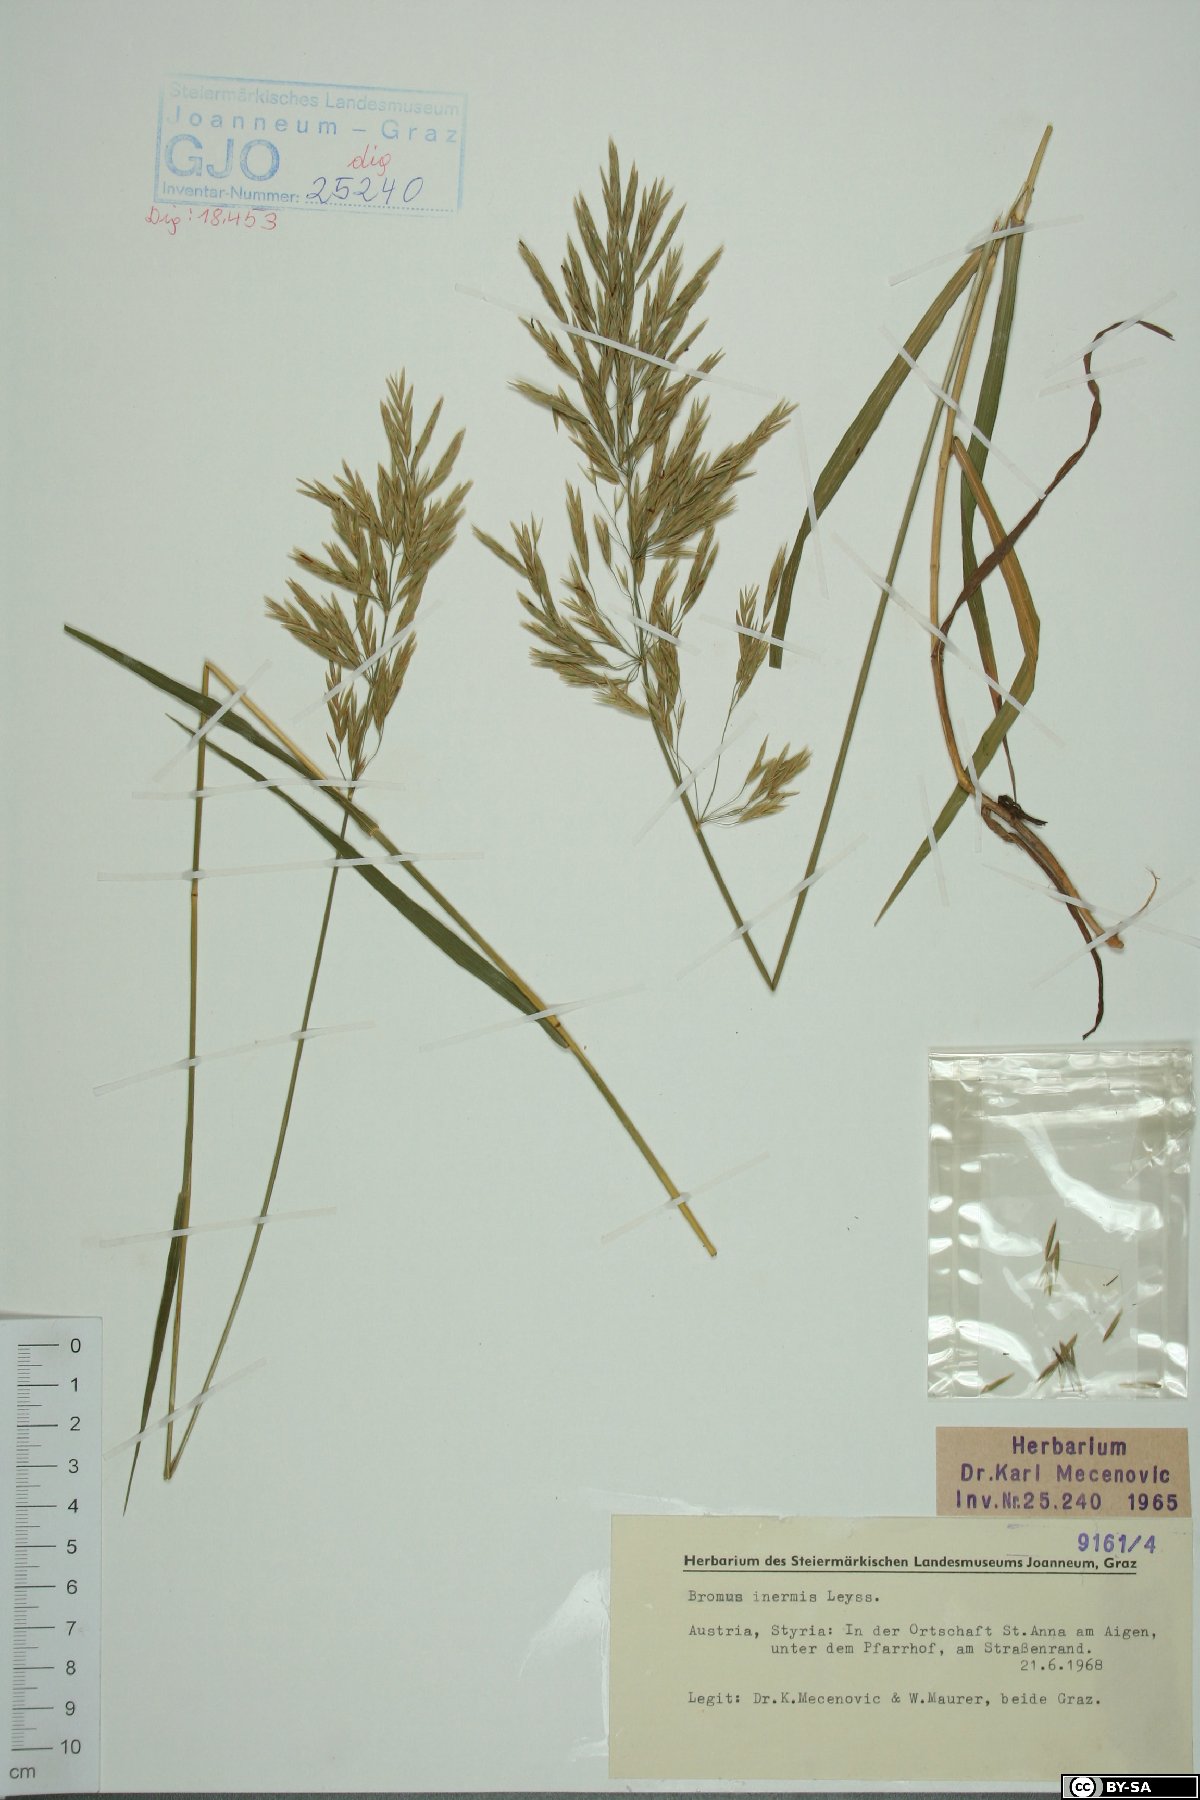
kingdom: Plantae
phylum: Tracheophyta
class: Liliopsida
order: Poales
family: Poaceae
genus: Bromus
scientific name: Bromus inermis
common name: Smooth brome
